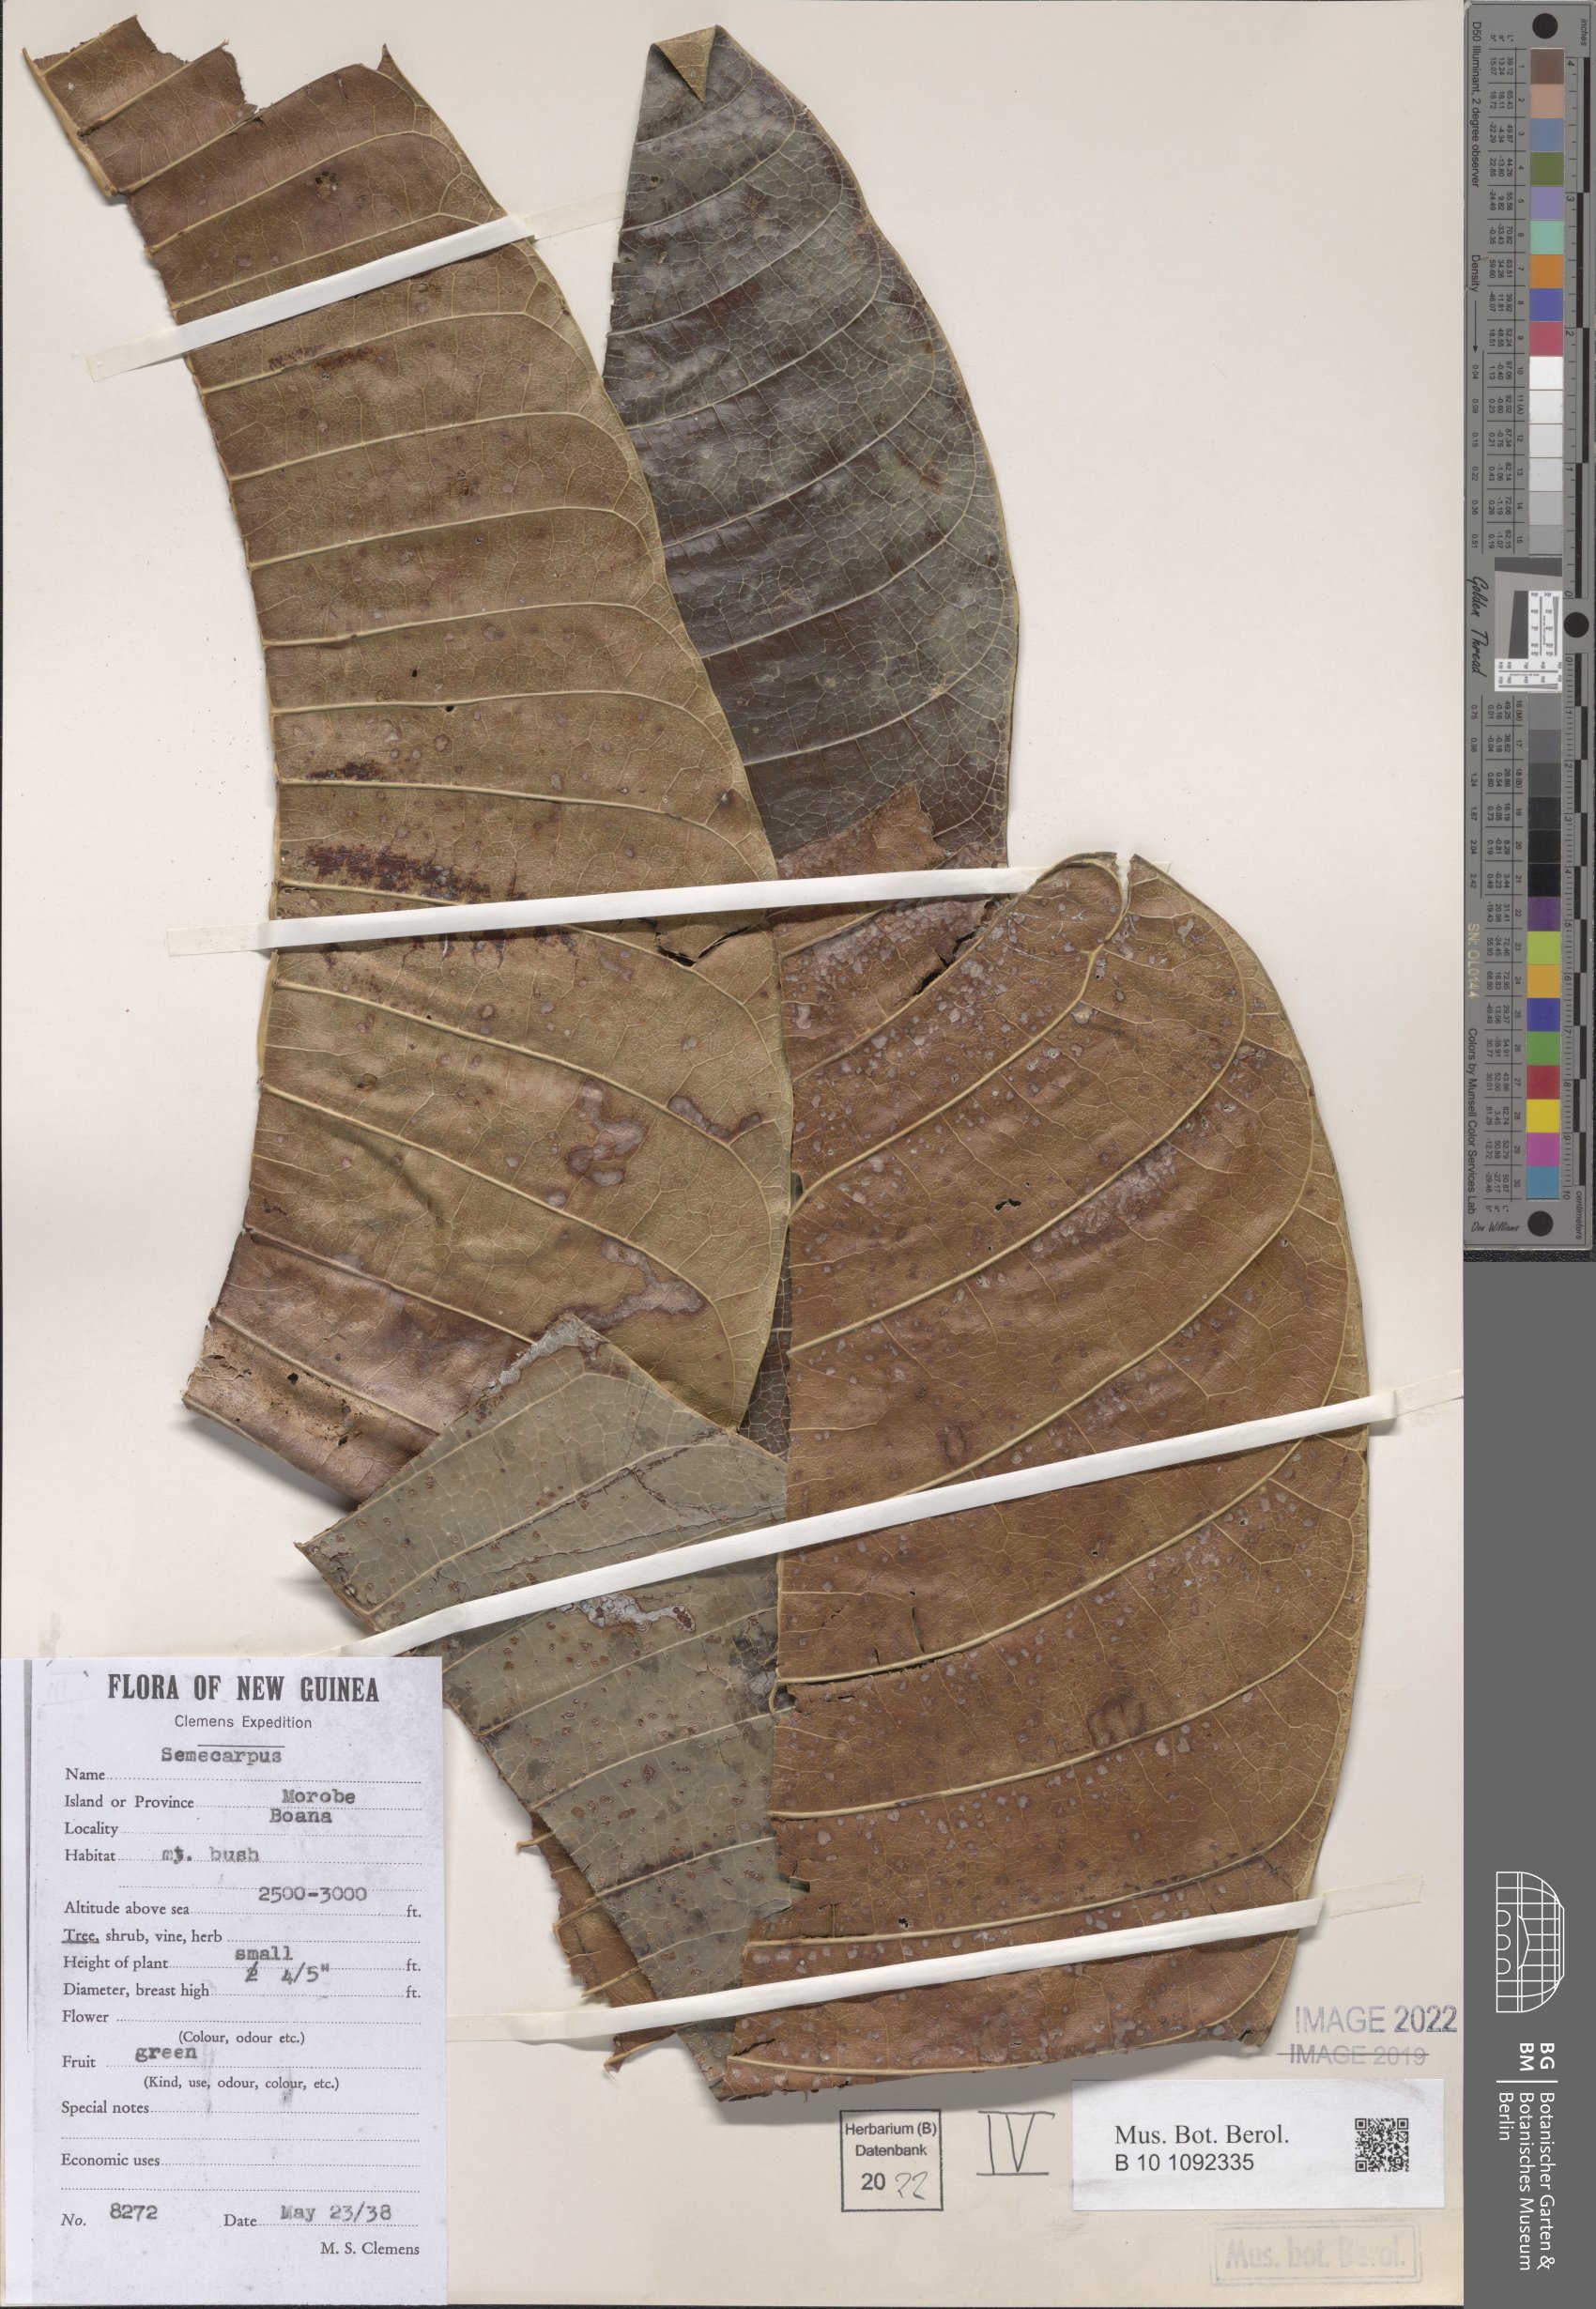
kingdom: Plantae
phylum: Tracheophyta
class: Magnoliopsida
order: Sapindales
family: Anacardiaceae
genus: Semecarpus
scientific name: Semecarpus
